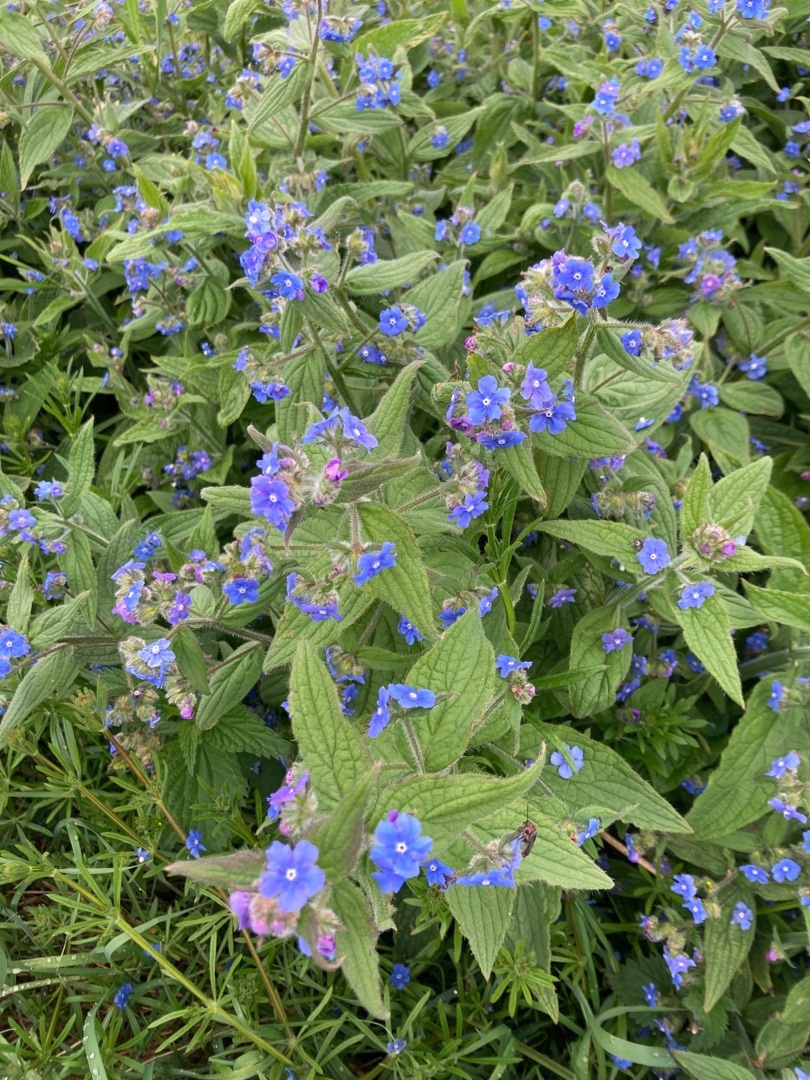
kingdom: Plantae
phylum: Tracheophyta
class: Magnoliopsida
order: Boraginales
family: Boraginaceae
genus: Pentaglottis
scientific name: Pentaglottis sempervirens
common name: Femtunge
